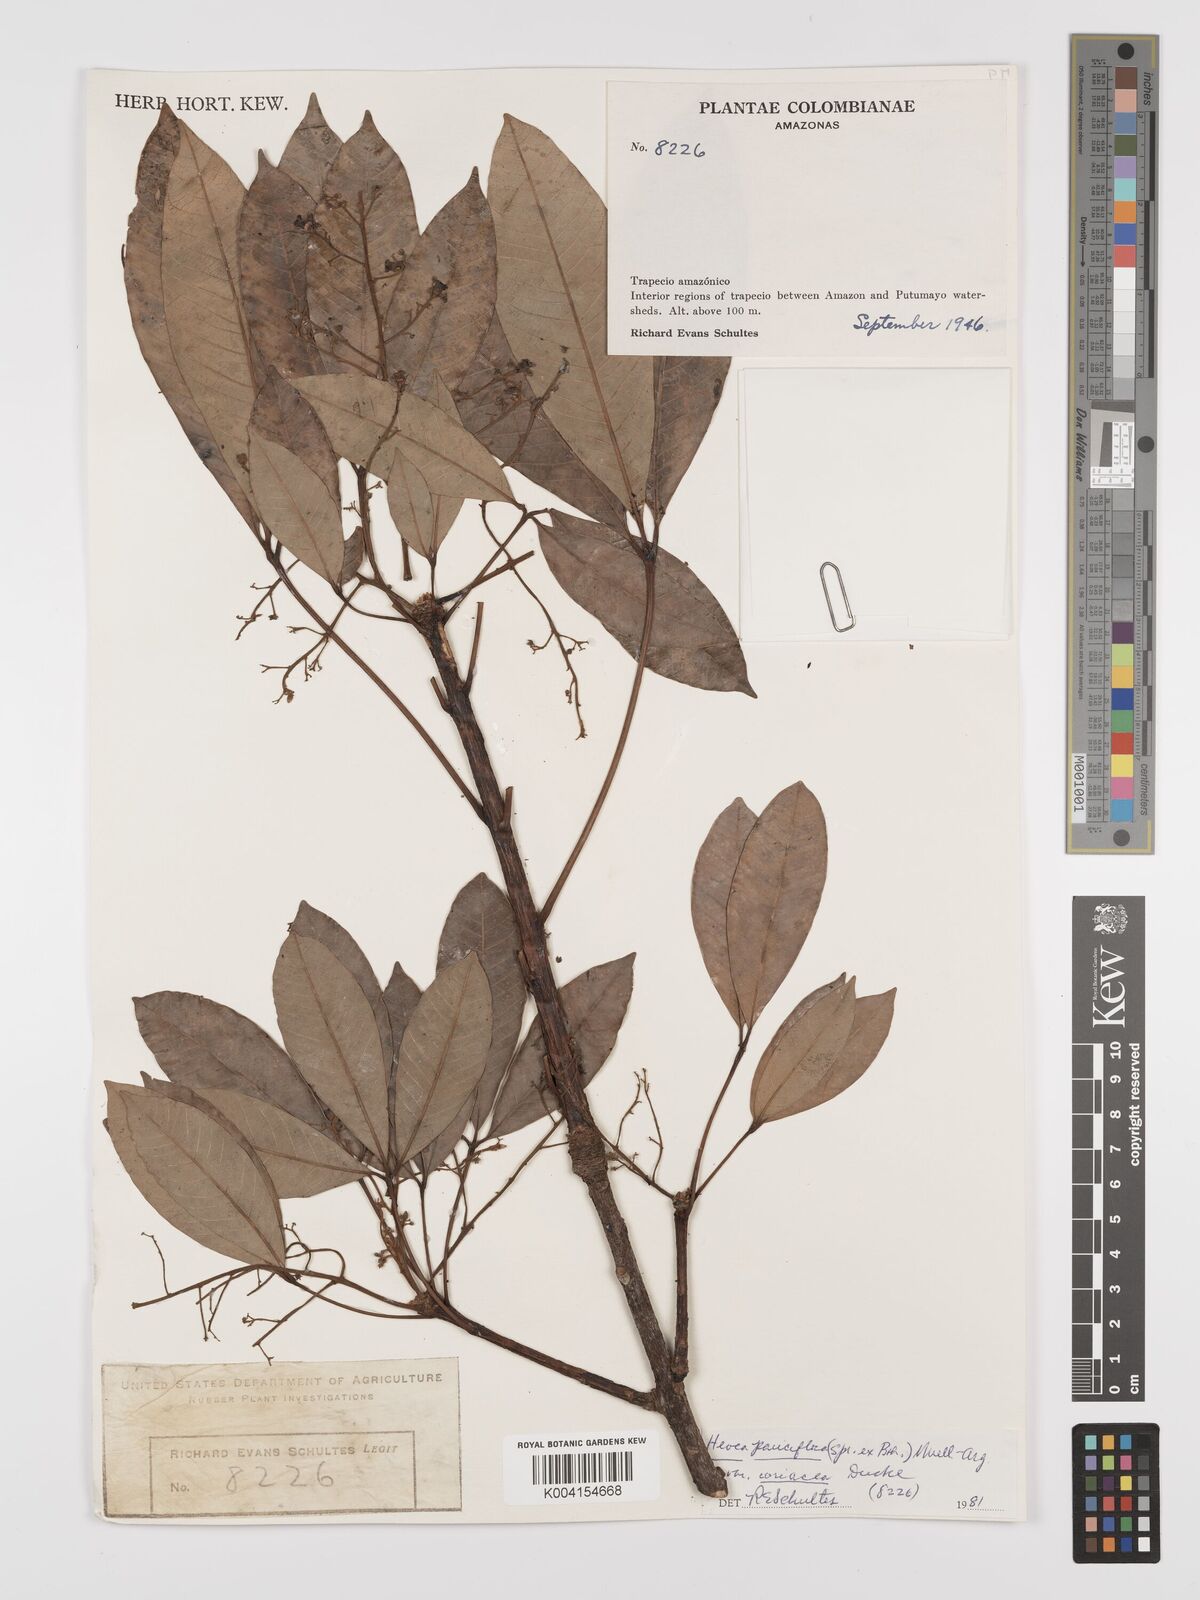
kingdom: Plantae
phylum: Tracheophyta
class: Magnoliopsida
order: Malpighiales
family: Euphorbiaceae
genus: Hevea
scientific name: Hevea pauciflora
